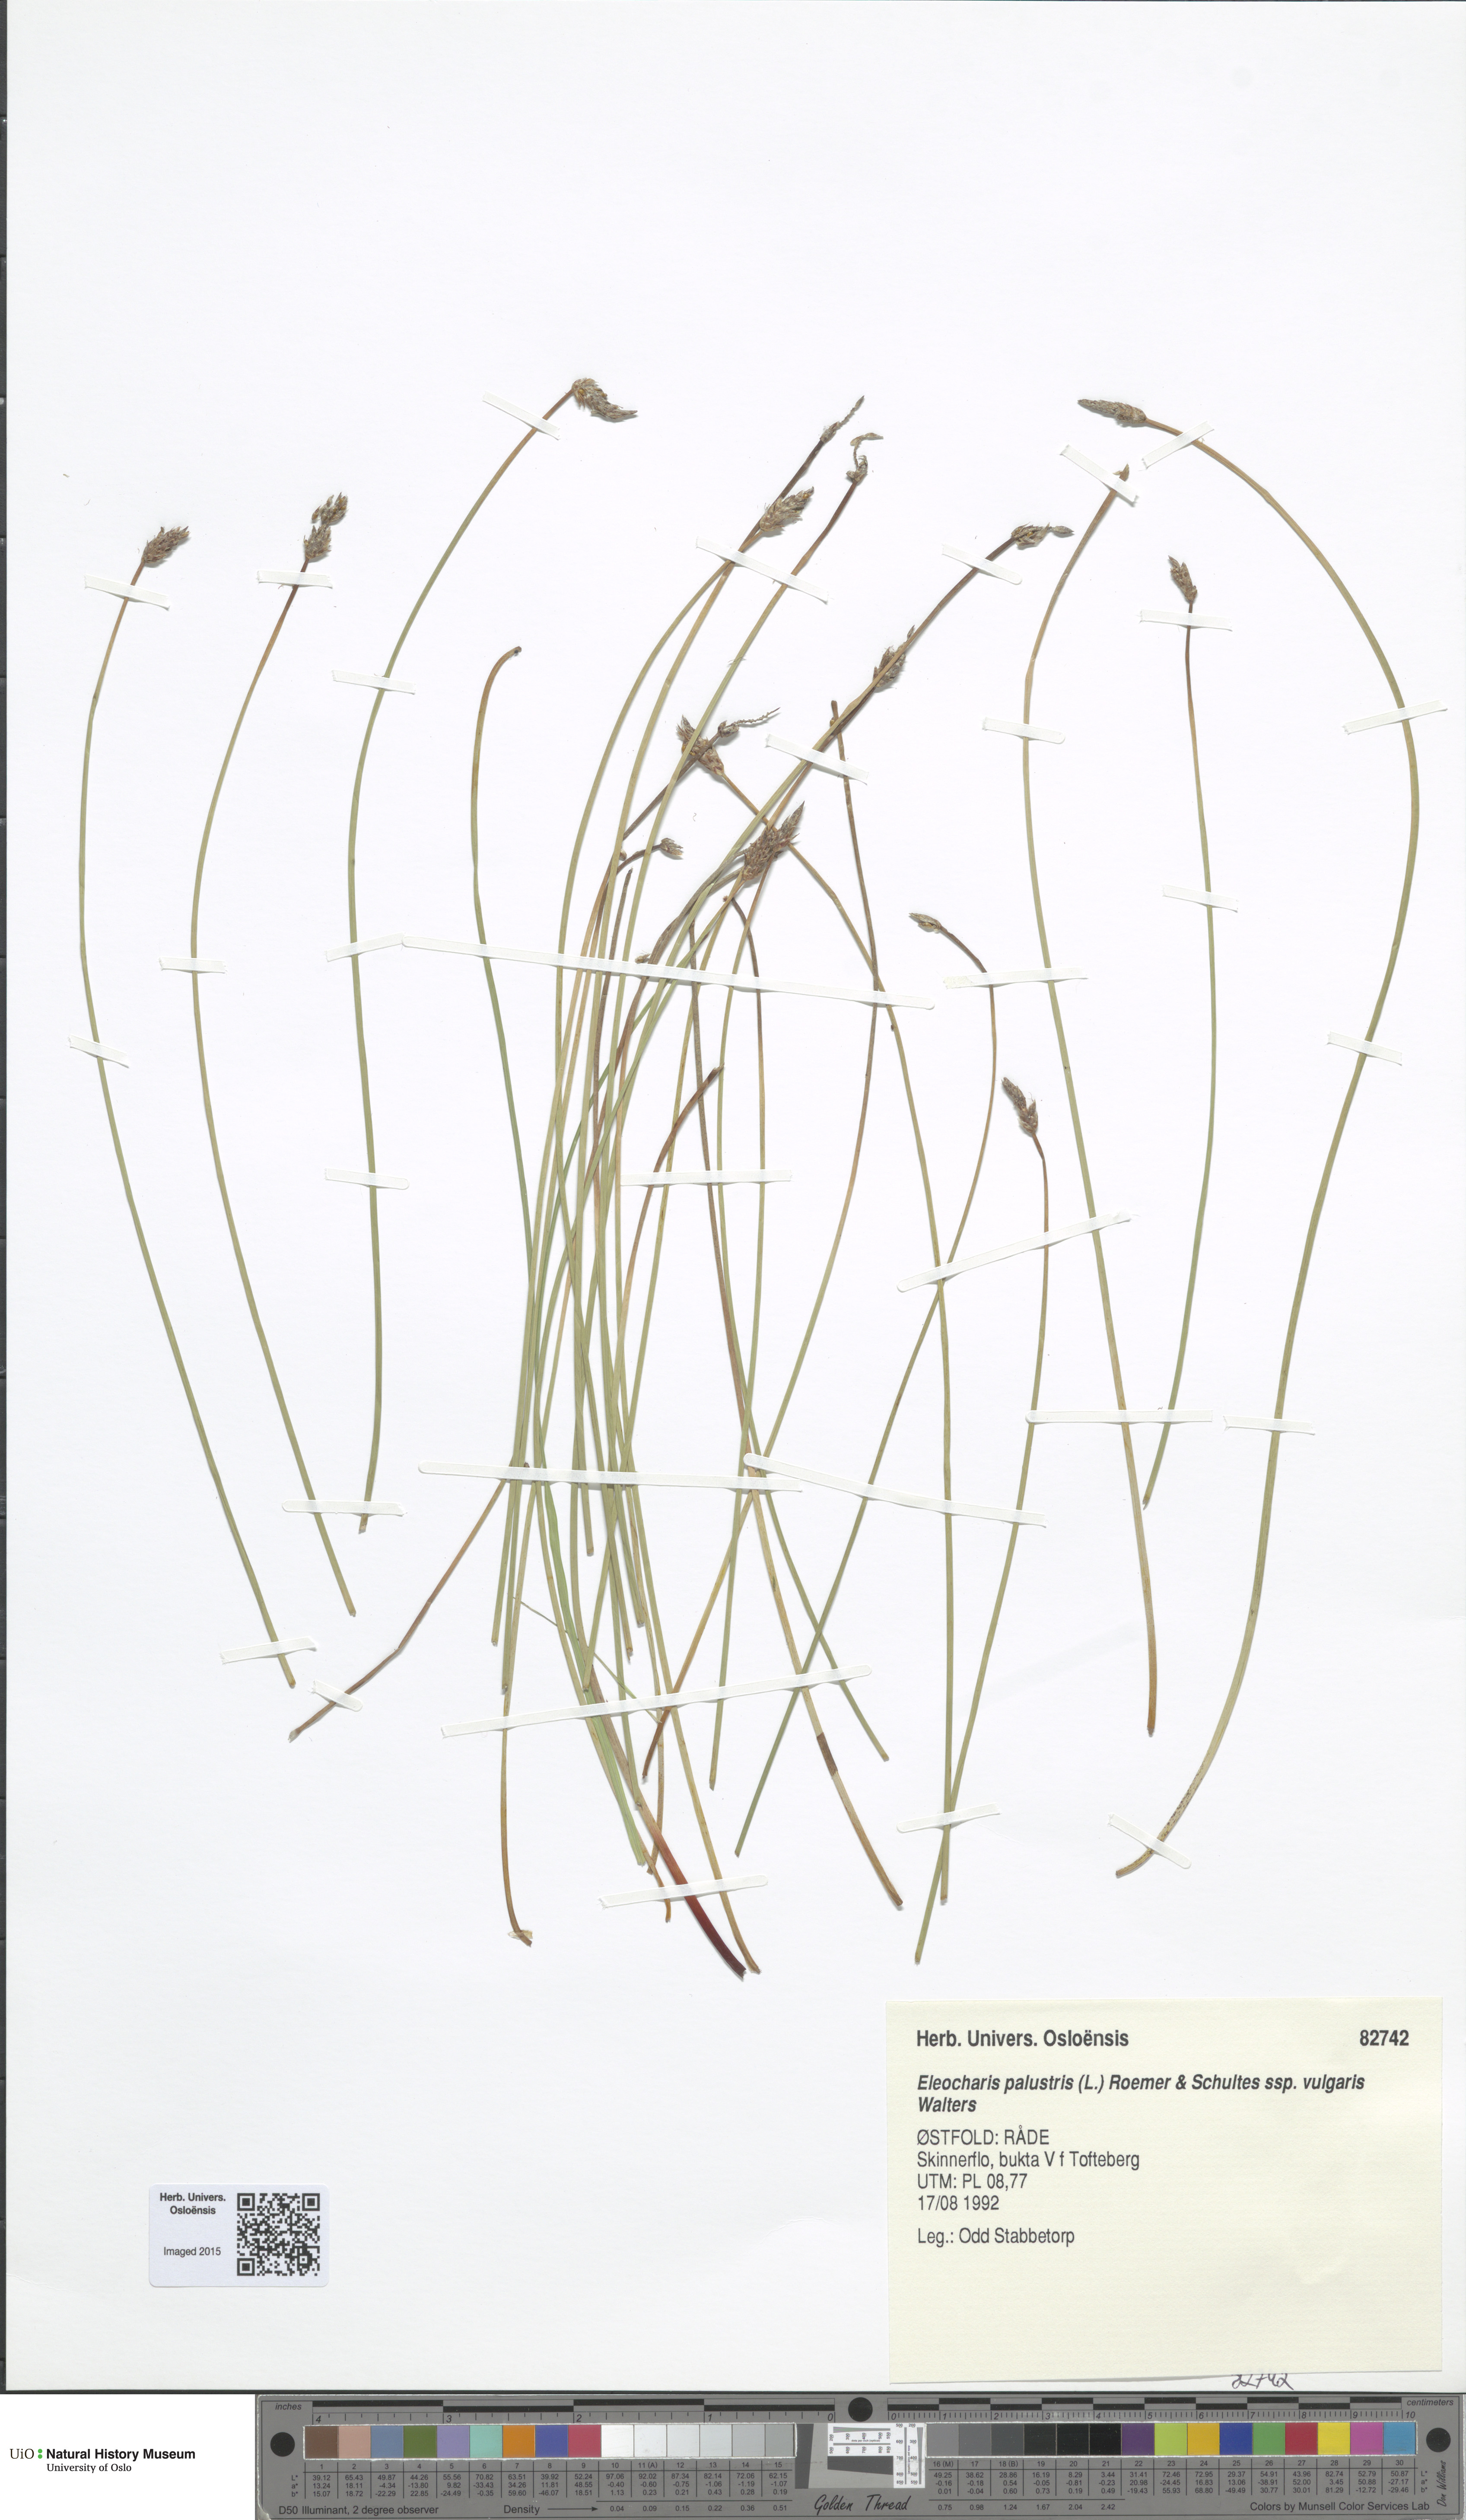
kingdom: Plantae
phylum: Tracheophyta
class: Liliopsida
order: Poales
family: Cyperaceae
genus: Eleocharis
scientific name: Eleocharis palustris
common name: Common spike-rush
